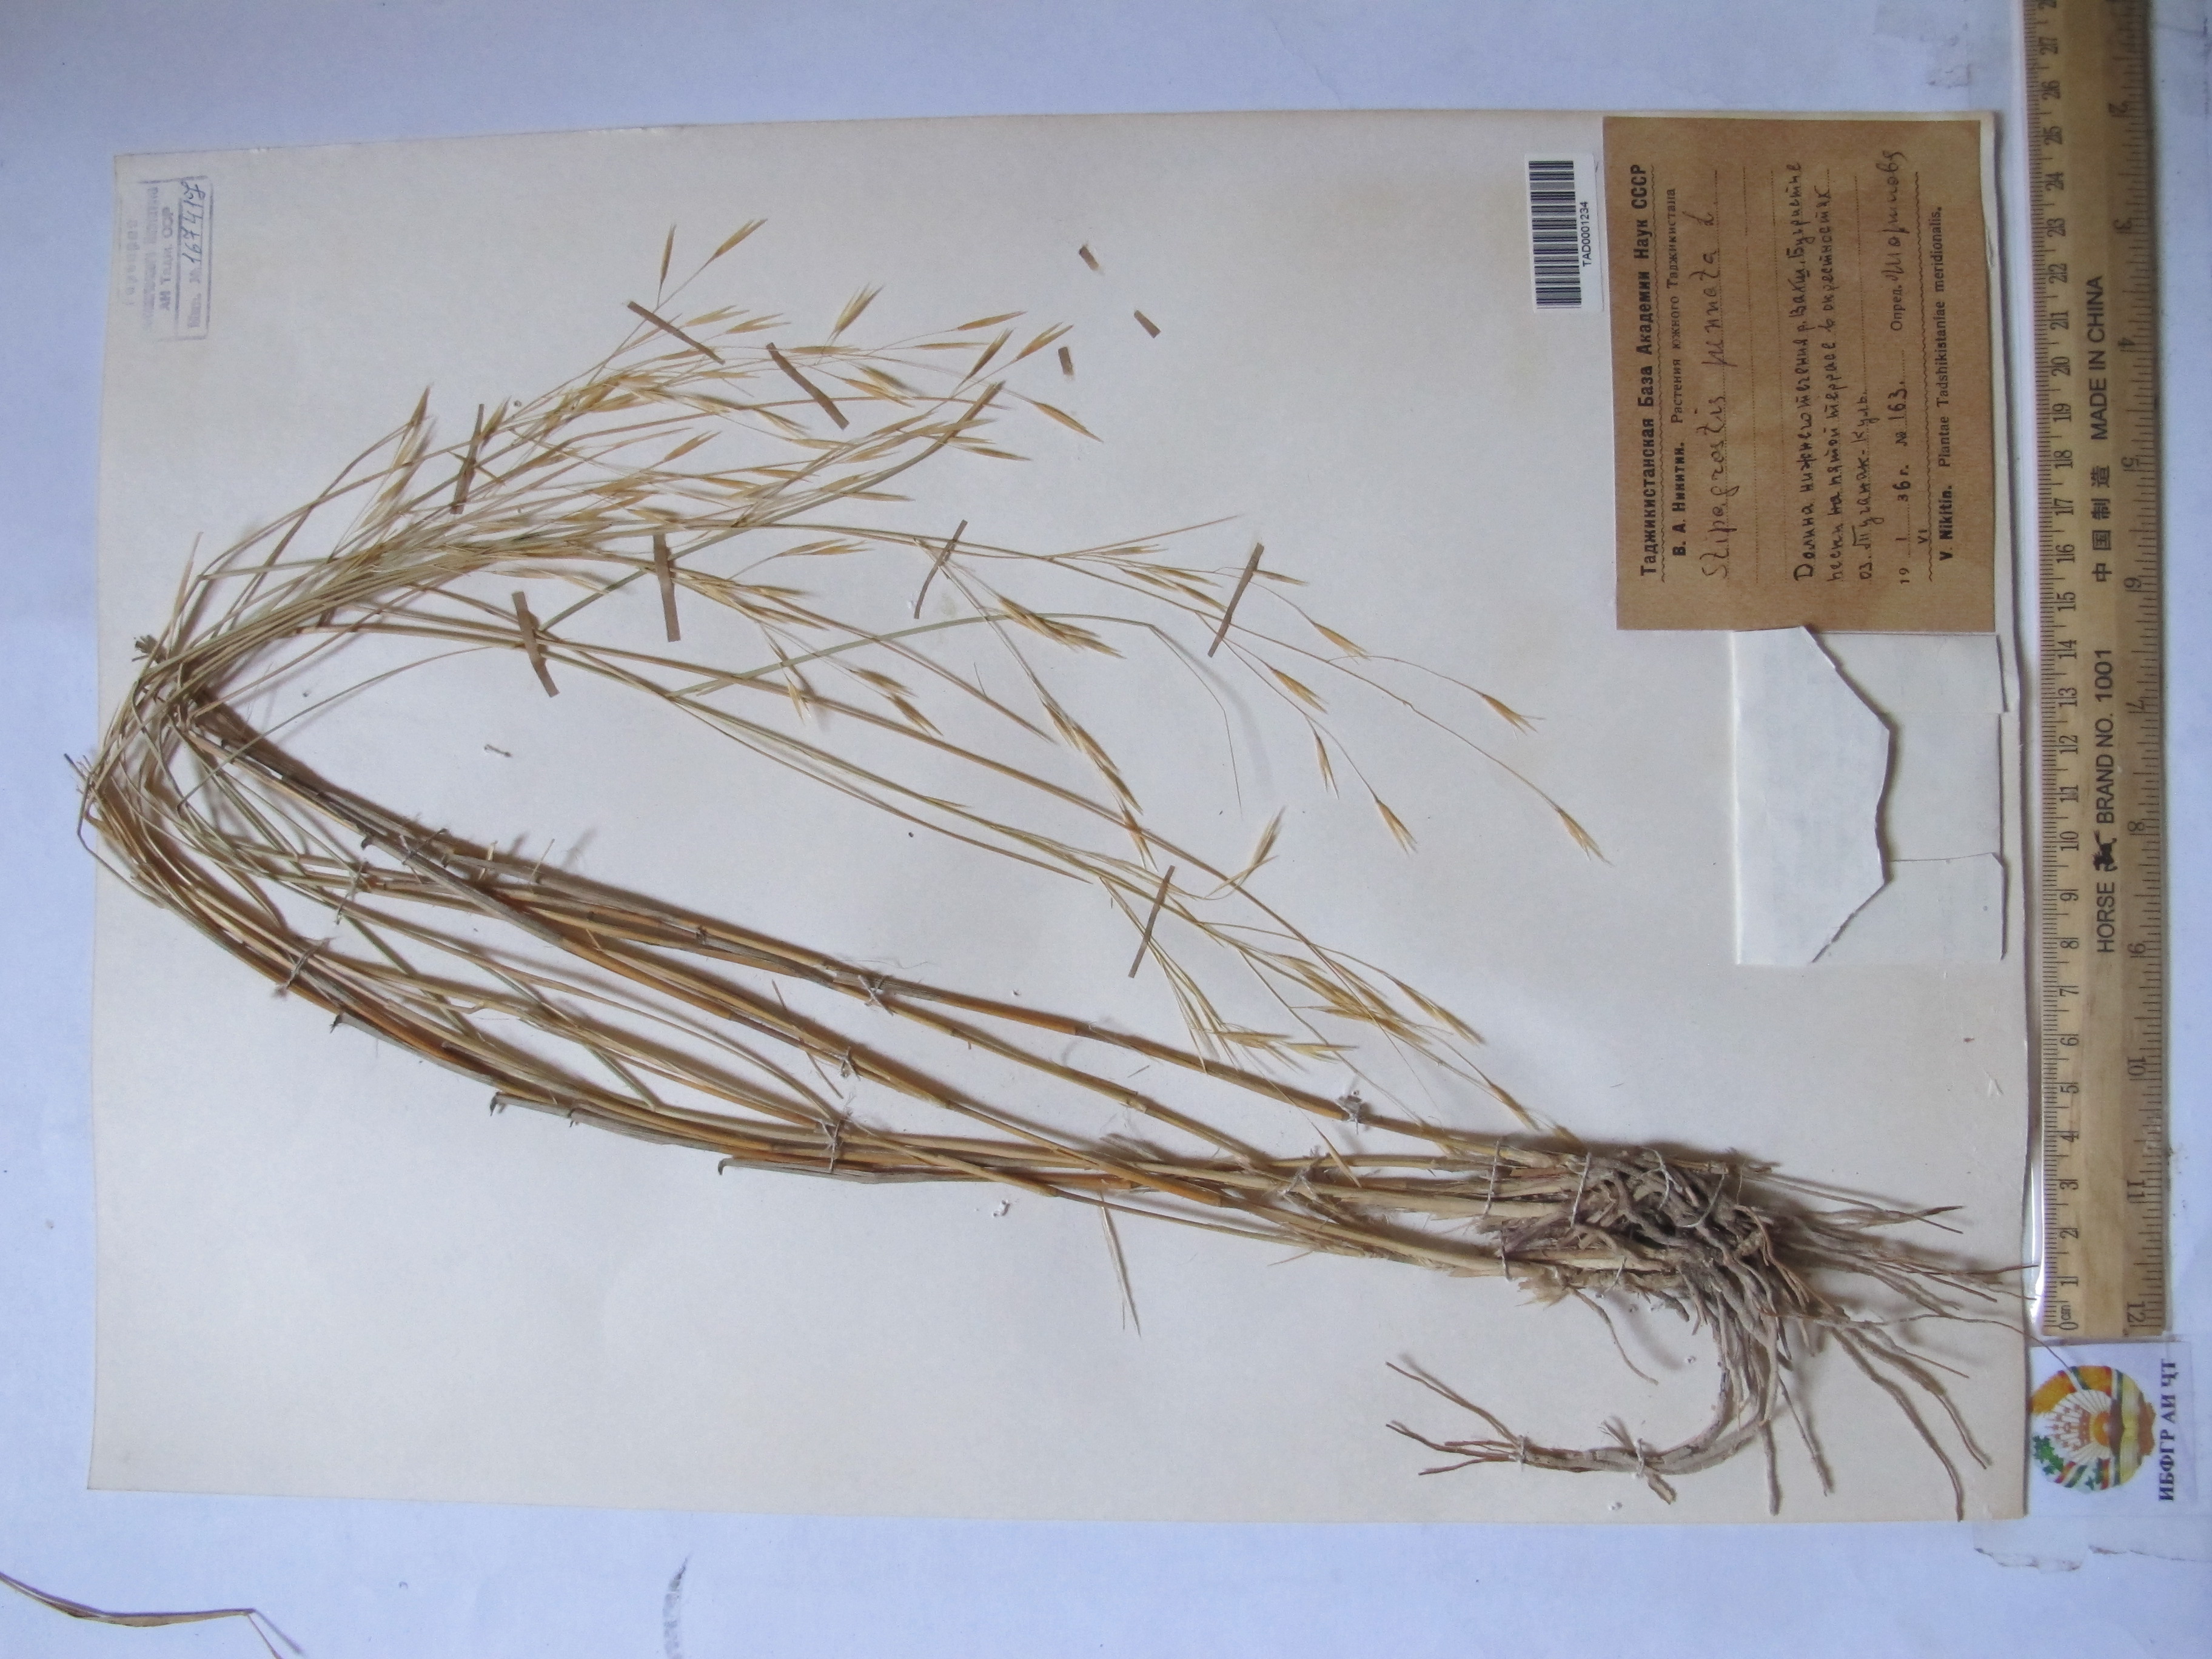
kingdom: Plantae
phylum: Tracheophyta
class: Liliopsida
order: Poales
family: Poaceae
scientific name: Poaceae
